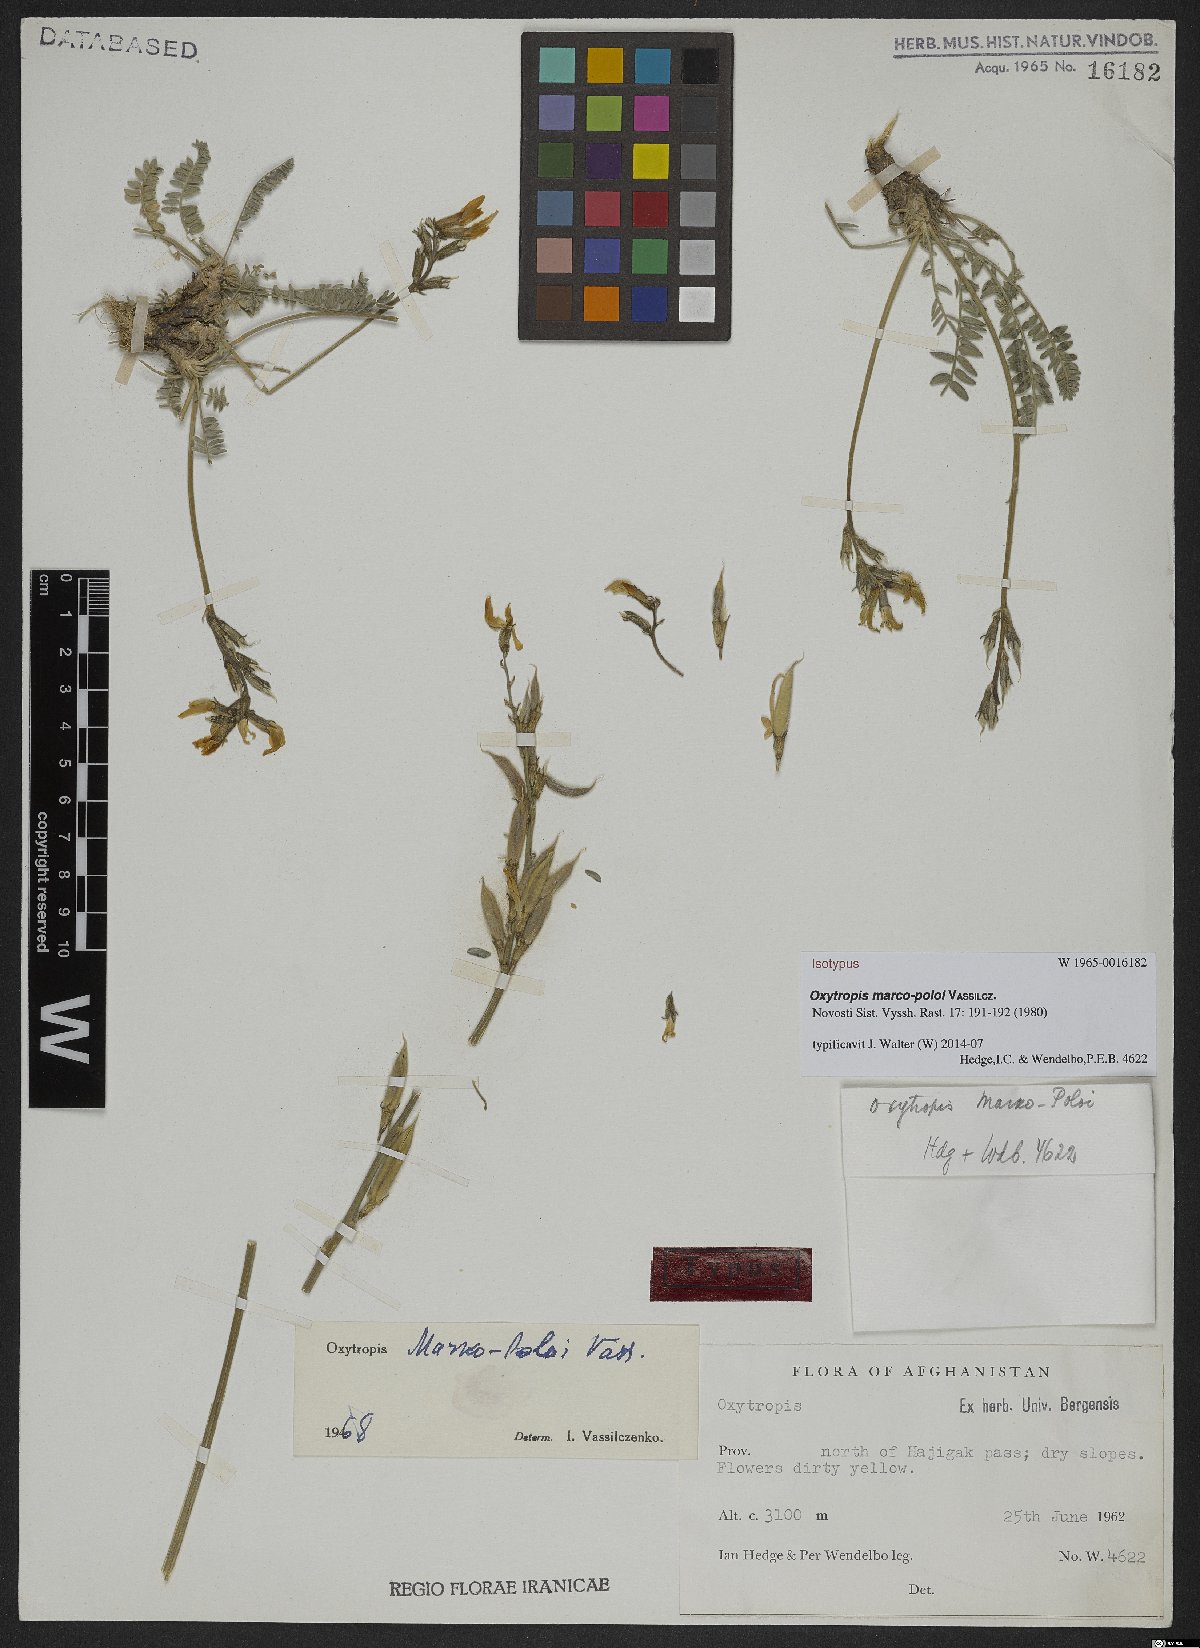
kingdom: Plantae
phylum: Tracheophyta
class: Magnoliopsida
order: Fabales
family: Fabaceae
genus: Oxytropis
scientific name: Oxytropis marco-poloi
